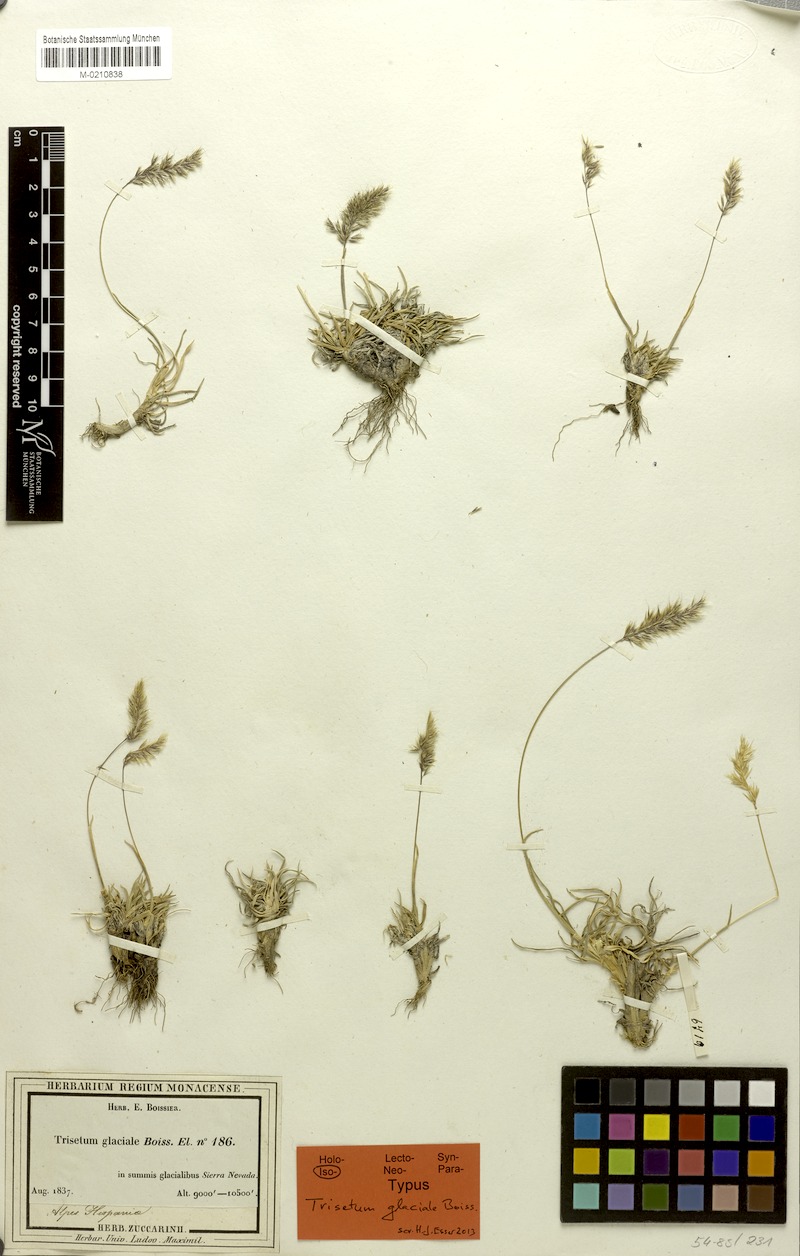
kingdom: Plantae
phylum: Tracheophyta
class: Liliopsida
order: Poales
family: Poaceae
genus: Acrospelion
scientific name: Acrospelion glaciale
